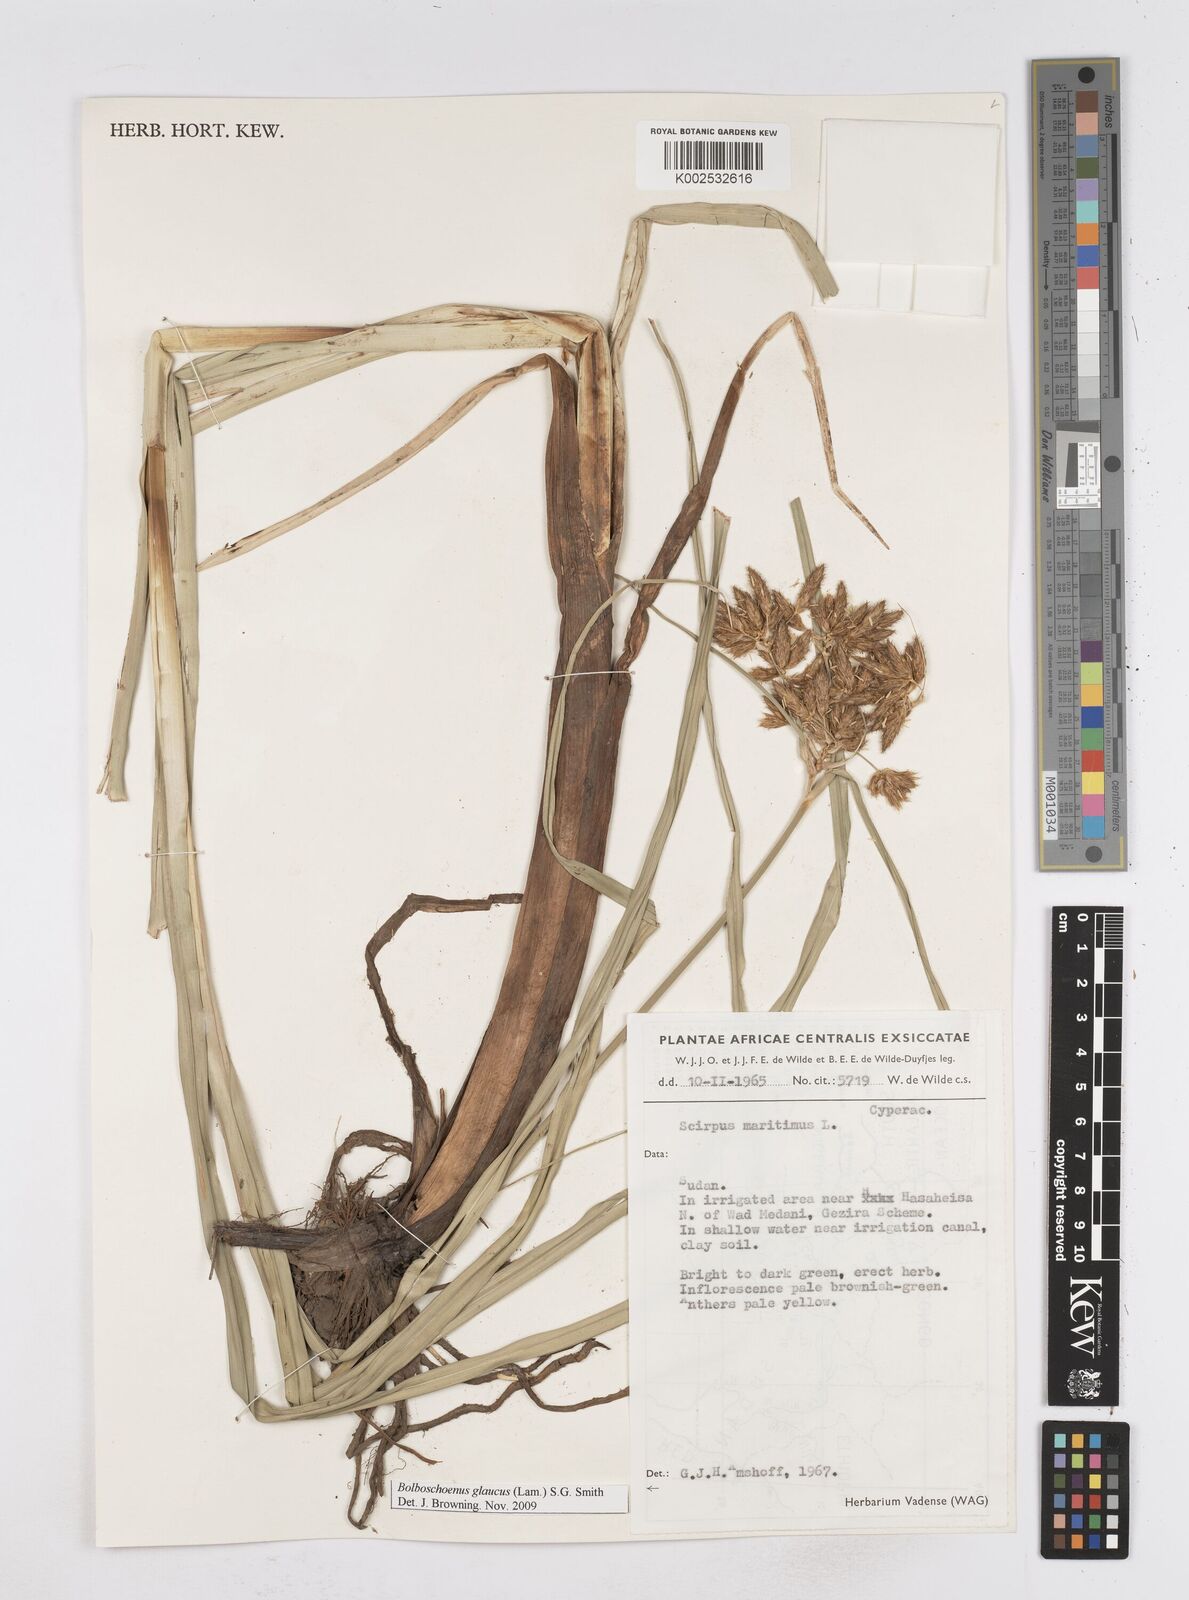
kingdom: Plantae
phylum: Tracheophyta
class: Liliopsida
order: Poales
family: Cyperaceae
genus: Bolboschoenus
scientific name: Bolboschoenus glaucus
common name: Tuberous bulrush
